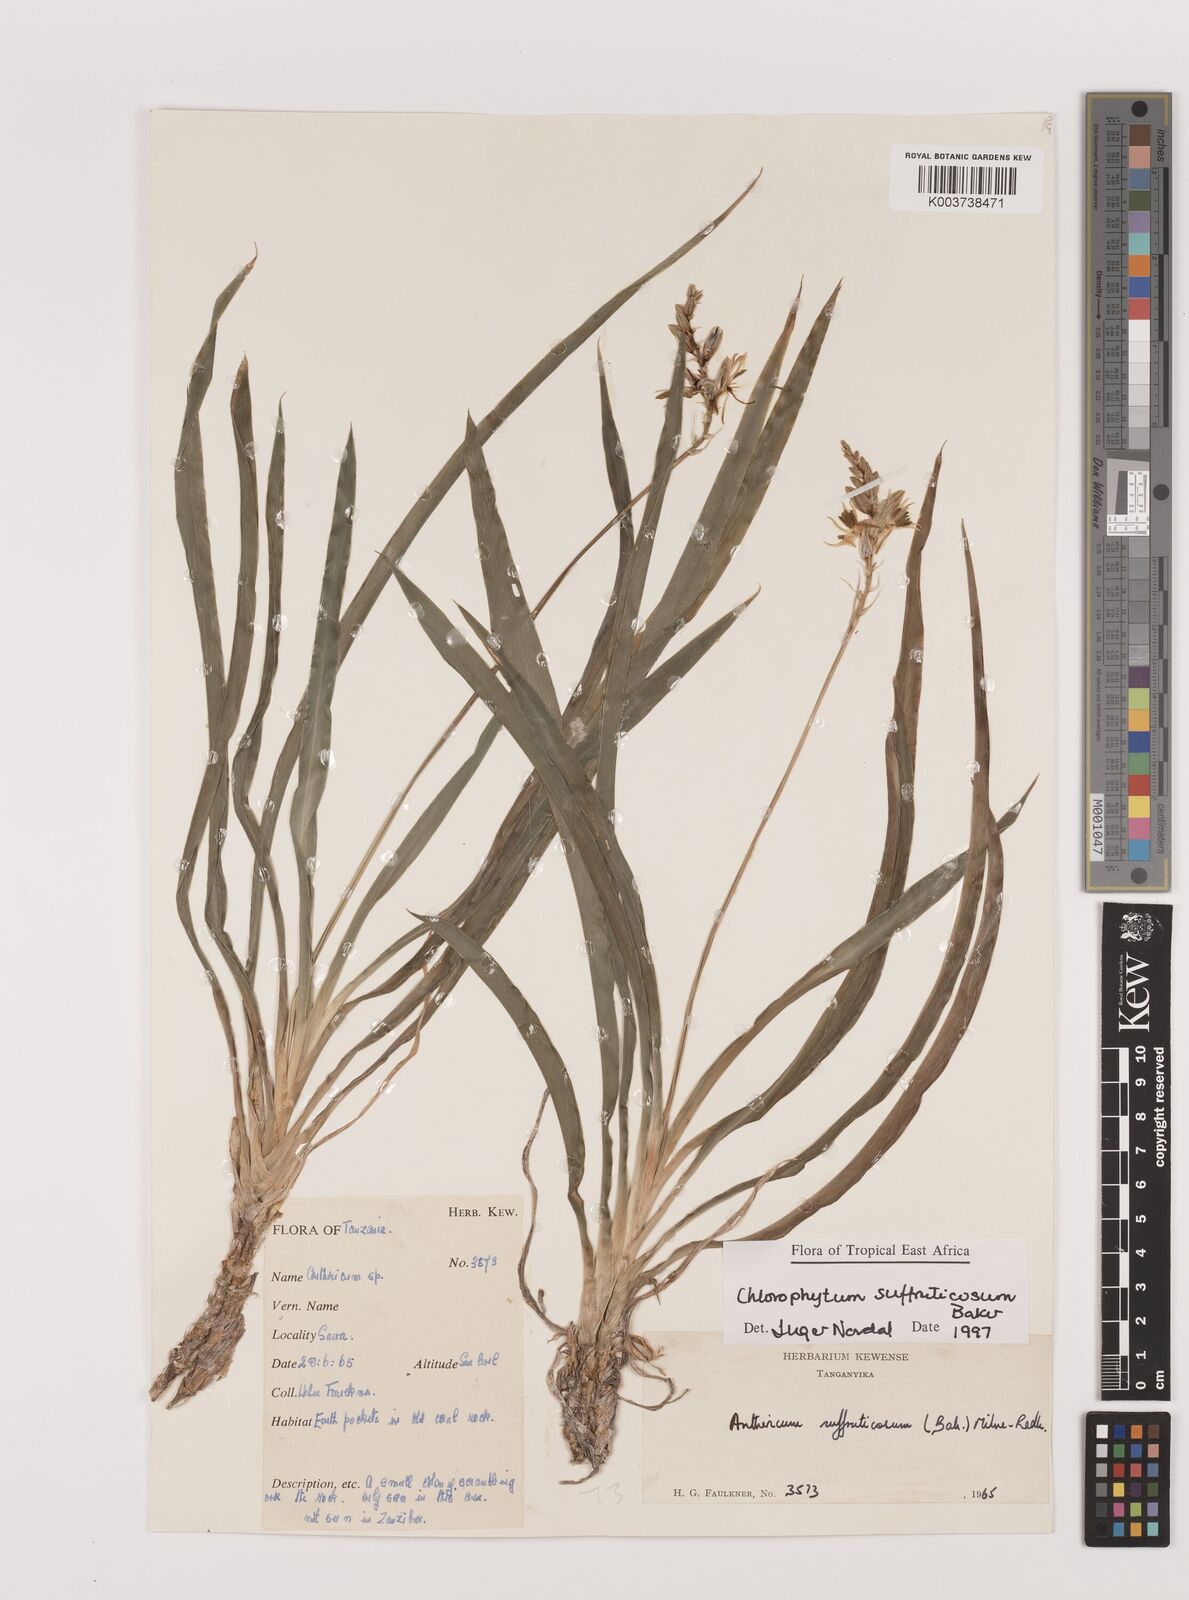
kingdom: Plantae
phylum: Tracheophyta
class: Liliopsida
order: Asparagales
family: Asparagaceae
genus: Chlorophytum
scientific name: Chlorophytum suffruticosum
